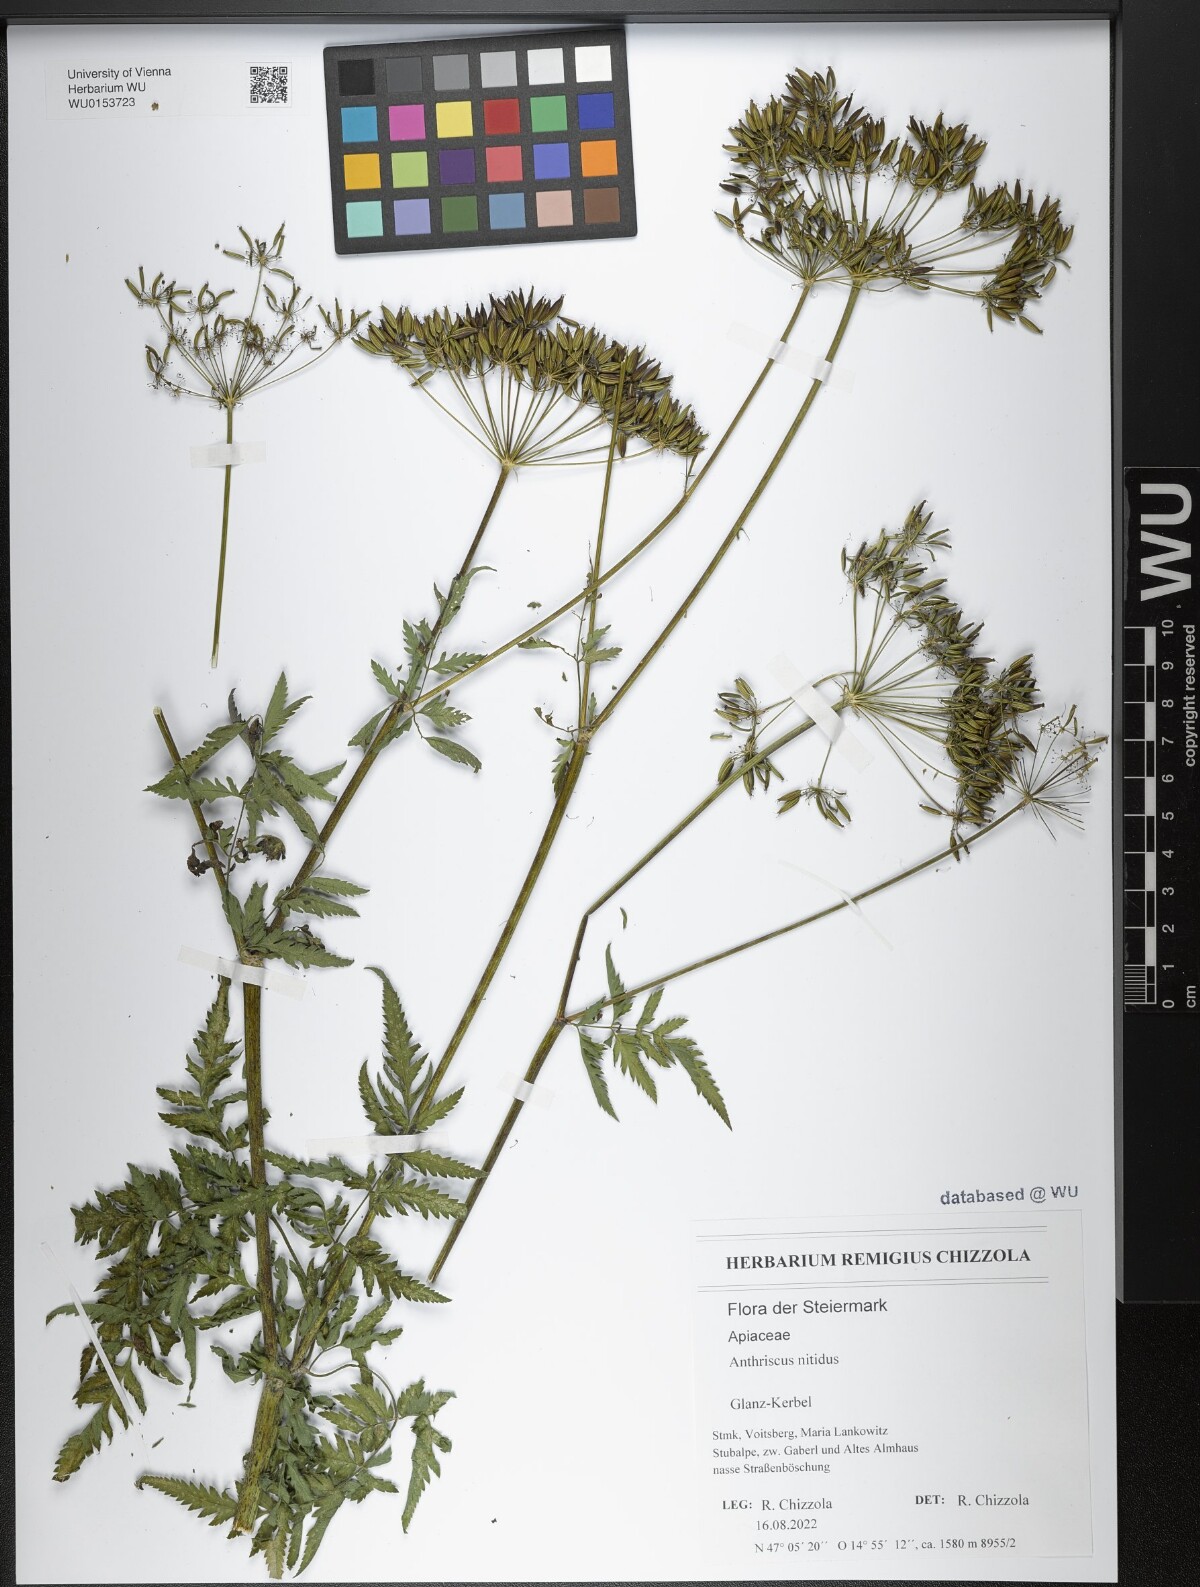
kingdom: Plantae
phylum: Tracheophyta
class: Magnoliopsida
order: Apiales
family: Apiaceae
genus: Anthriscus
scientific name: Anthriscus nitida
